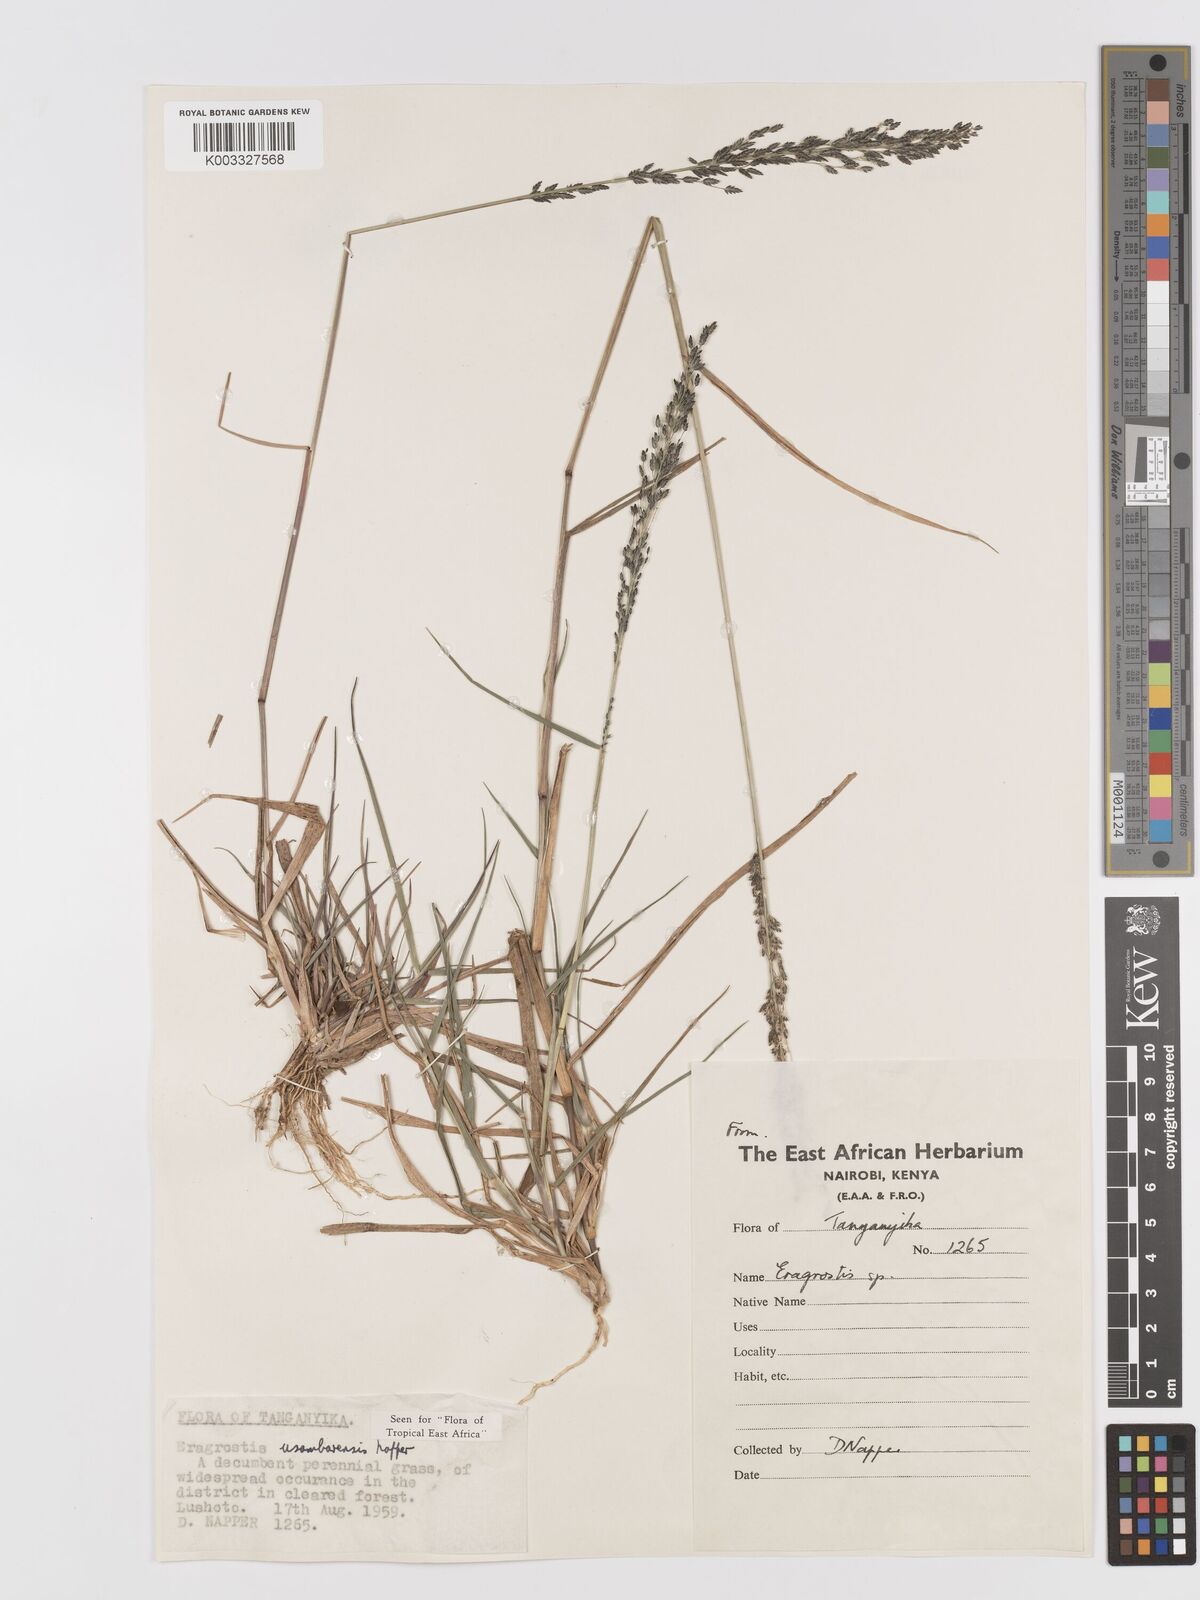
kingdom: Plantae
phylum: Tracheophyta
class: Liliopsida
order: Poales
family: Poaceae
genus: Eragrostis
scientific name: Eragrostis usambarensis
